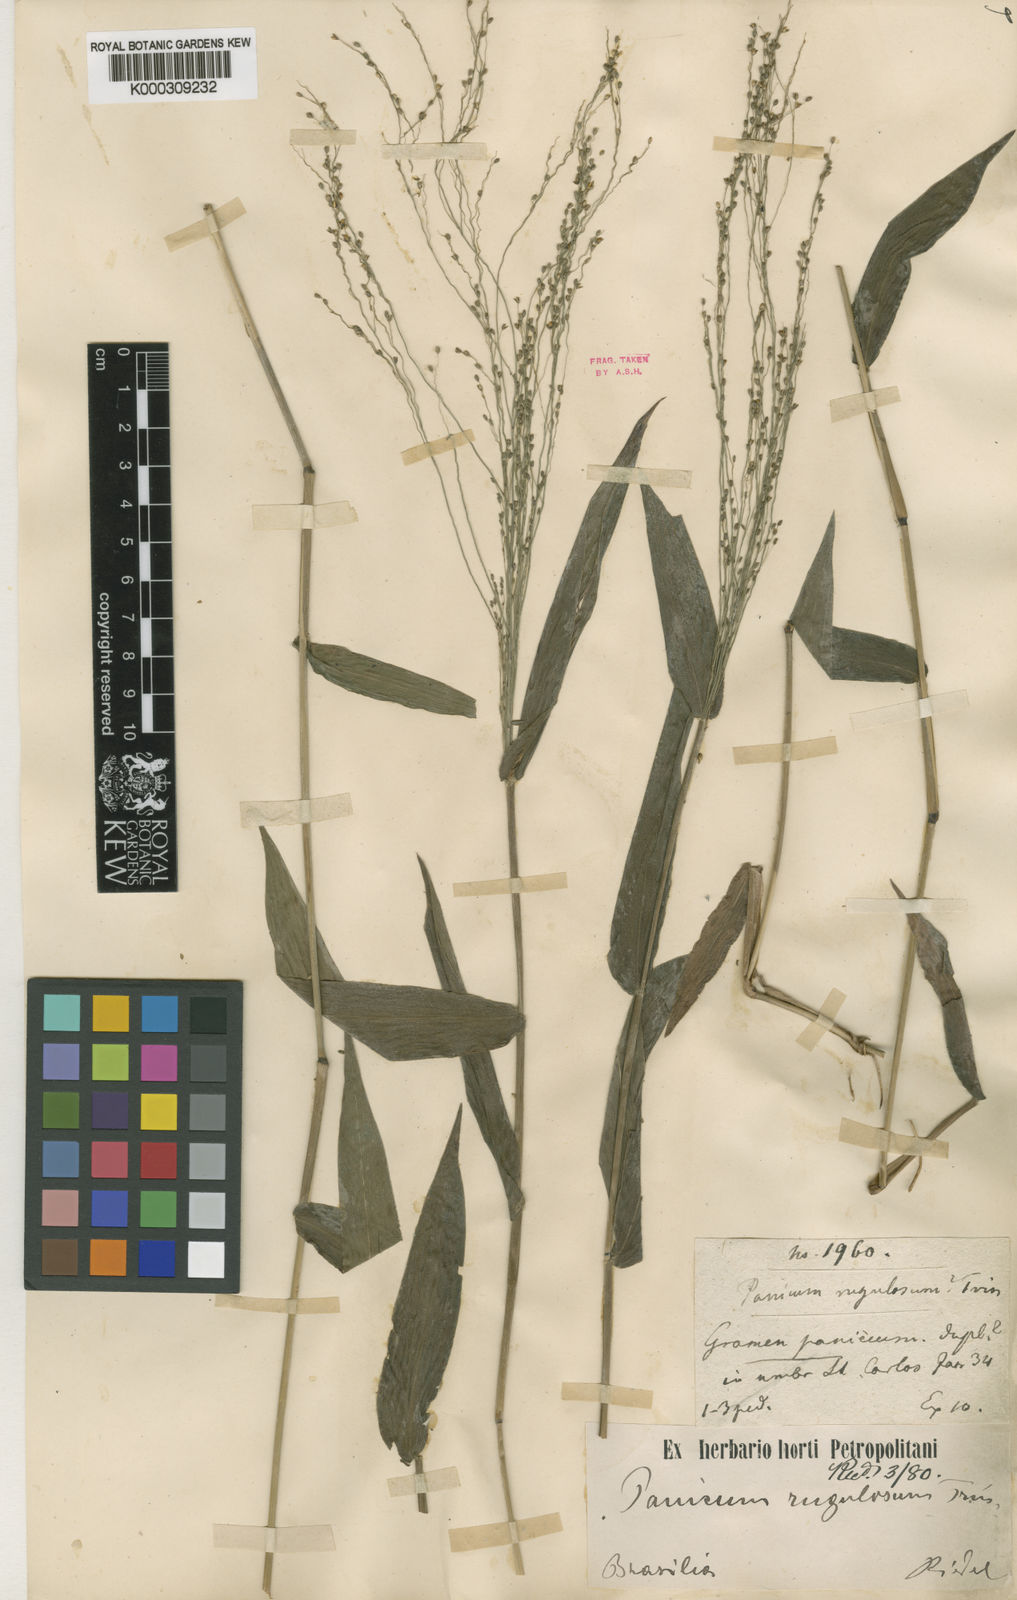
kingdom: Plantae
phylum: Tracheophyta
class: Liliopsida
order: Poales
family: Poaceae
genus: Panicum
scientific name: Panicum millegrana
